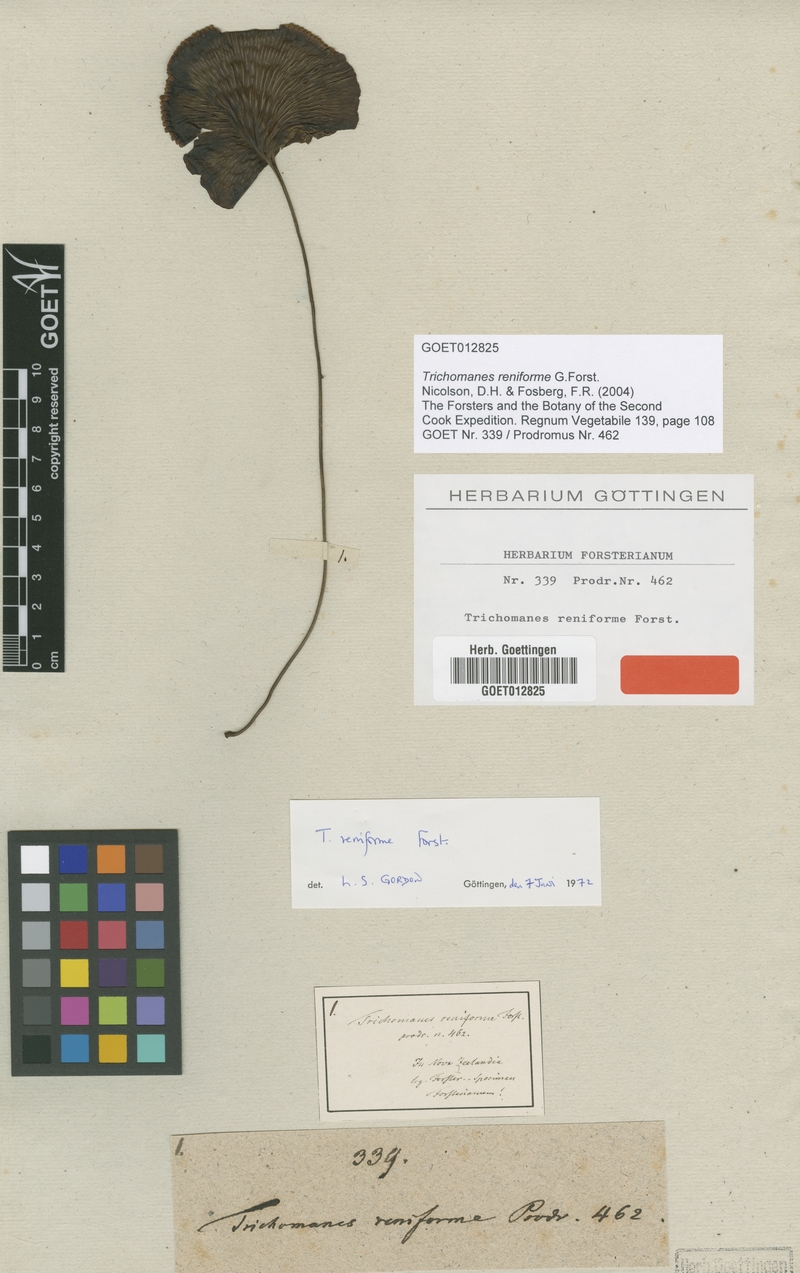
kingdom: Plantae
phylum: Tracheophyta
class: Polypodiopsida
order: Hymenophyllales
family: Hymenophyllaceae
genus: Hymenophyllum
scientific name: Hymenophyllum nephrophyllum
